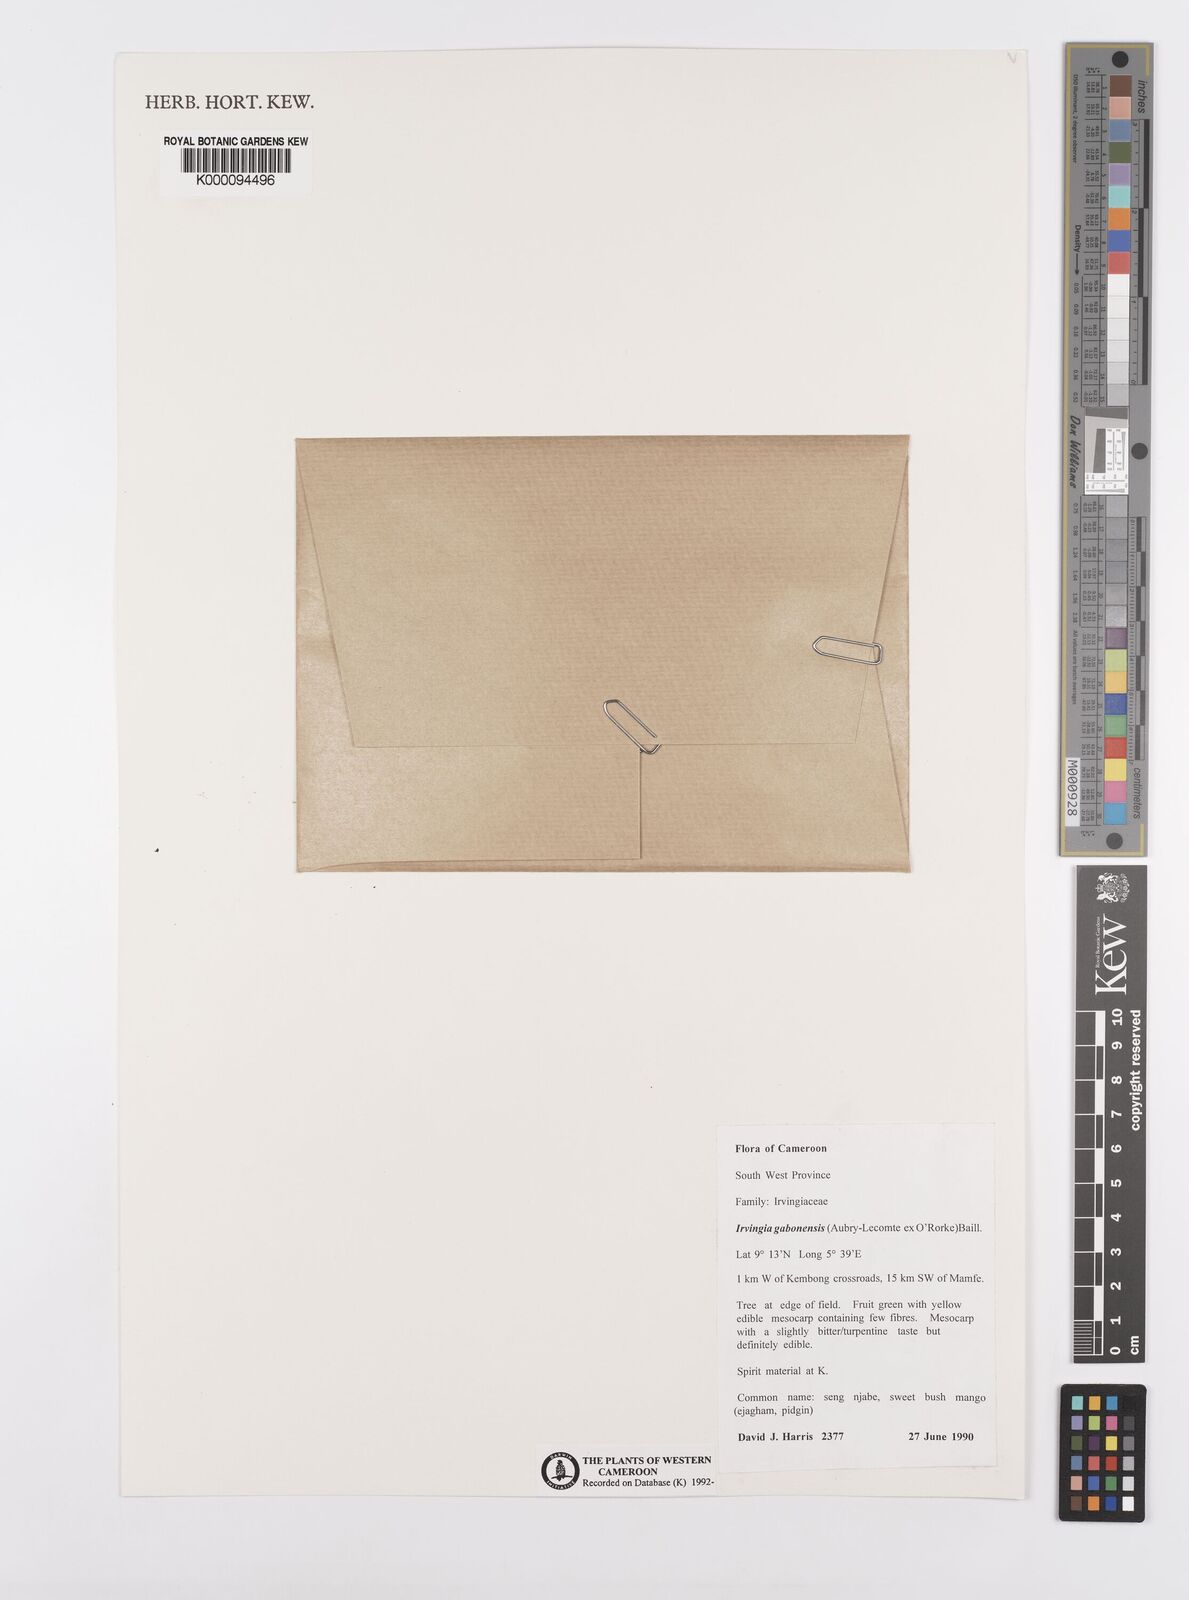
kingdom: Plantae
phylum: Tracheophyta
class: Magnoliopsida
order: Malpighiales
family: Irvingiaceae
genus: Irvingia
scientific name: Irvingia gabonensis
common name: Rainy season bush-mango
